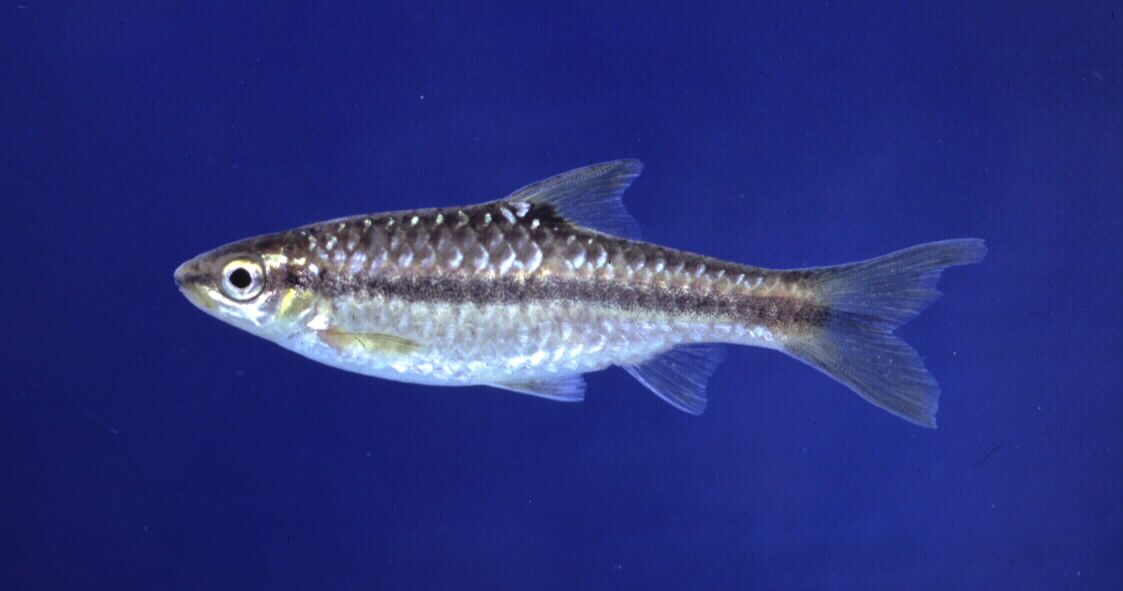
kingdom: Animalia
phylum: Chordata
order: Cypriniformes
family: Cyprinidae
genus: Enteromius
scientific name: Enteromius eutaenia
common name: Orangefin barb
